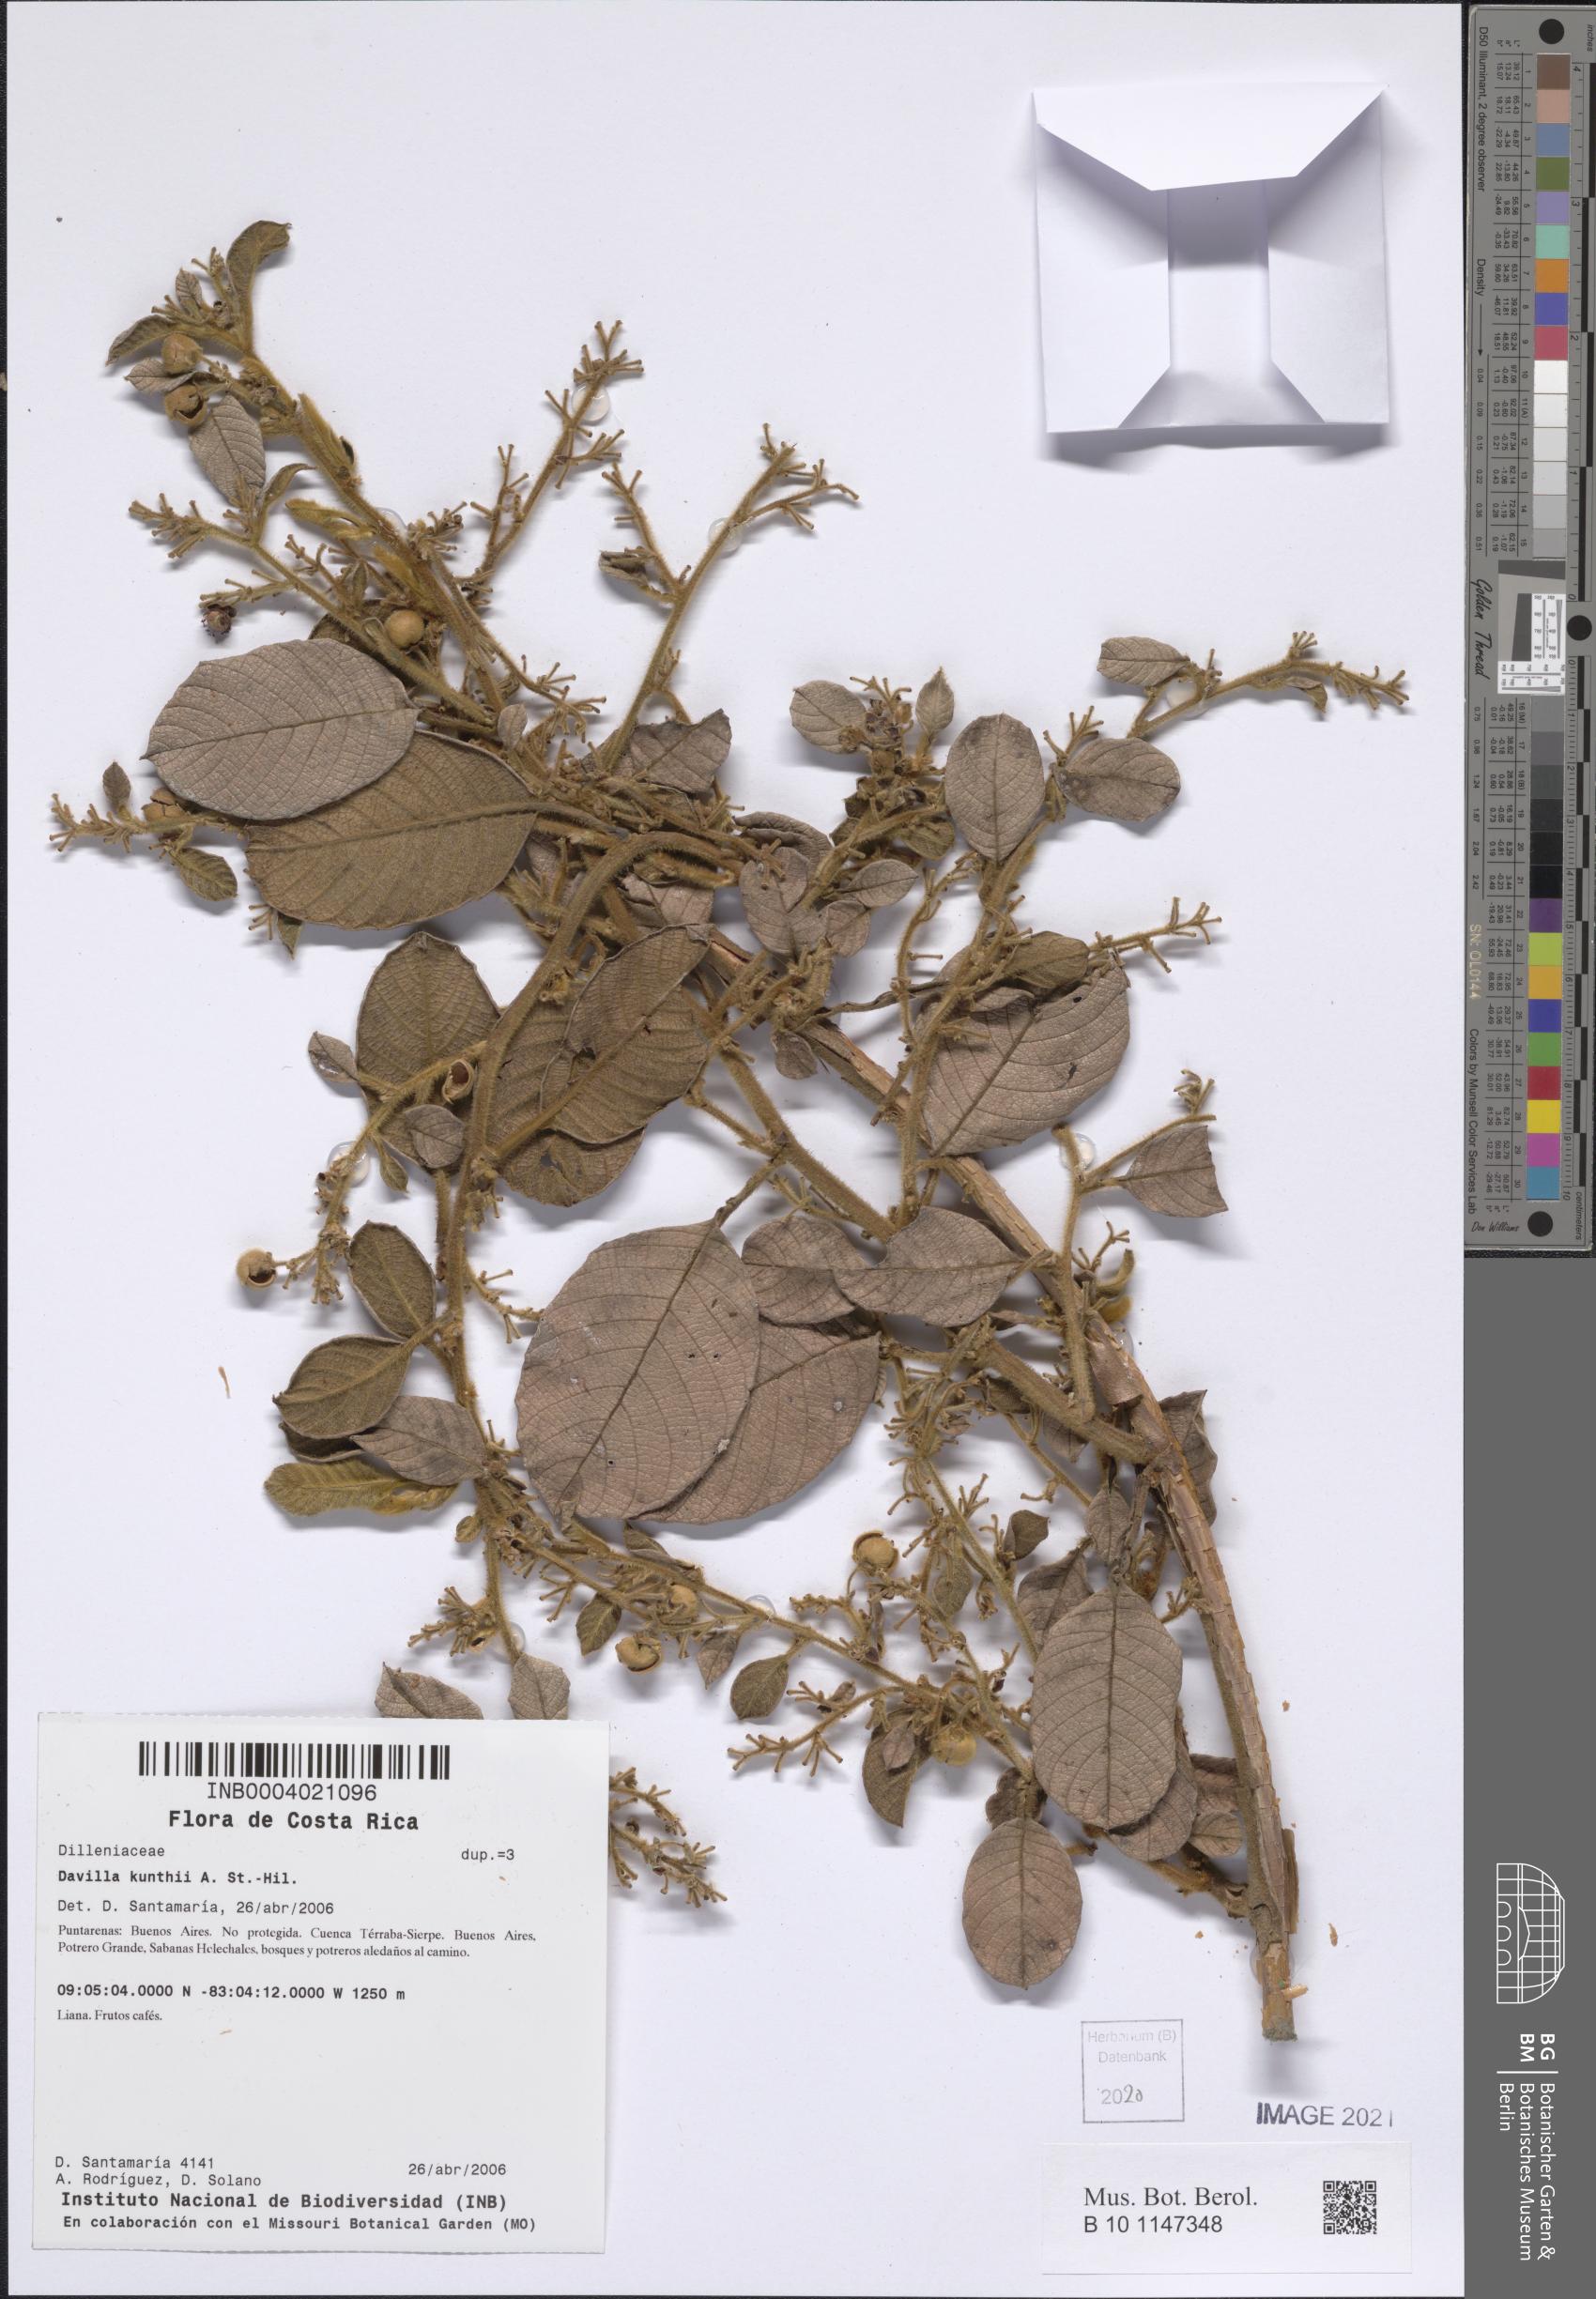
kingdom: Plantae
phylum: Tracheophyta
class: Magnoliopsida
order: Dilleniales
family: Dilleniaceae
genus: Davilla
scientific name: Davilla kunthii
